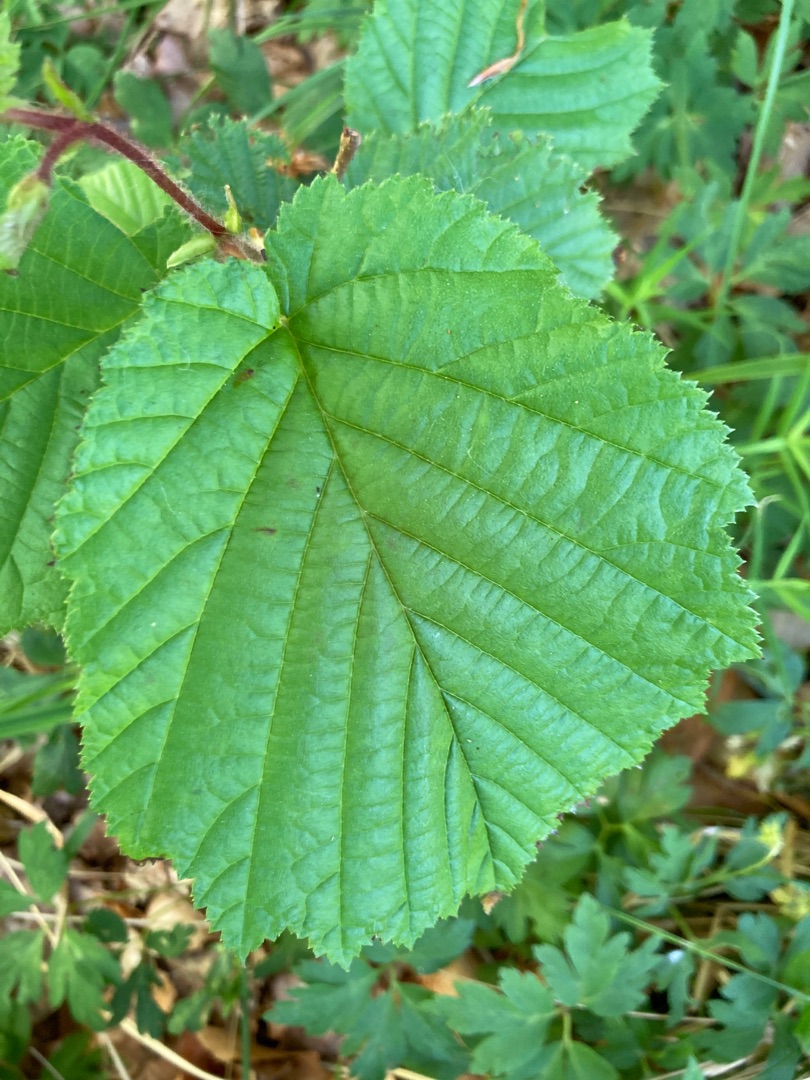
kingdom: Plantae
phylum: Tracheophyta
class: Magnoliopsida
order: Fagales
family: Betulaceae
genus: Corylus
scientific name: Corylus avellana
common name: Hassel
